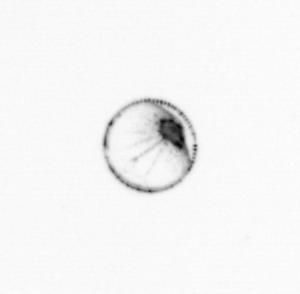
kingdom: Chromista
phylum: Myzozoa
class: Dinophyceae
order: Noctilucales
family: Noctilucaceae
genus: Noctiluca
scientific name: Noctiluca scintillans
